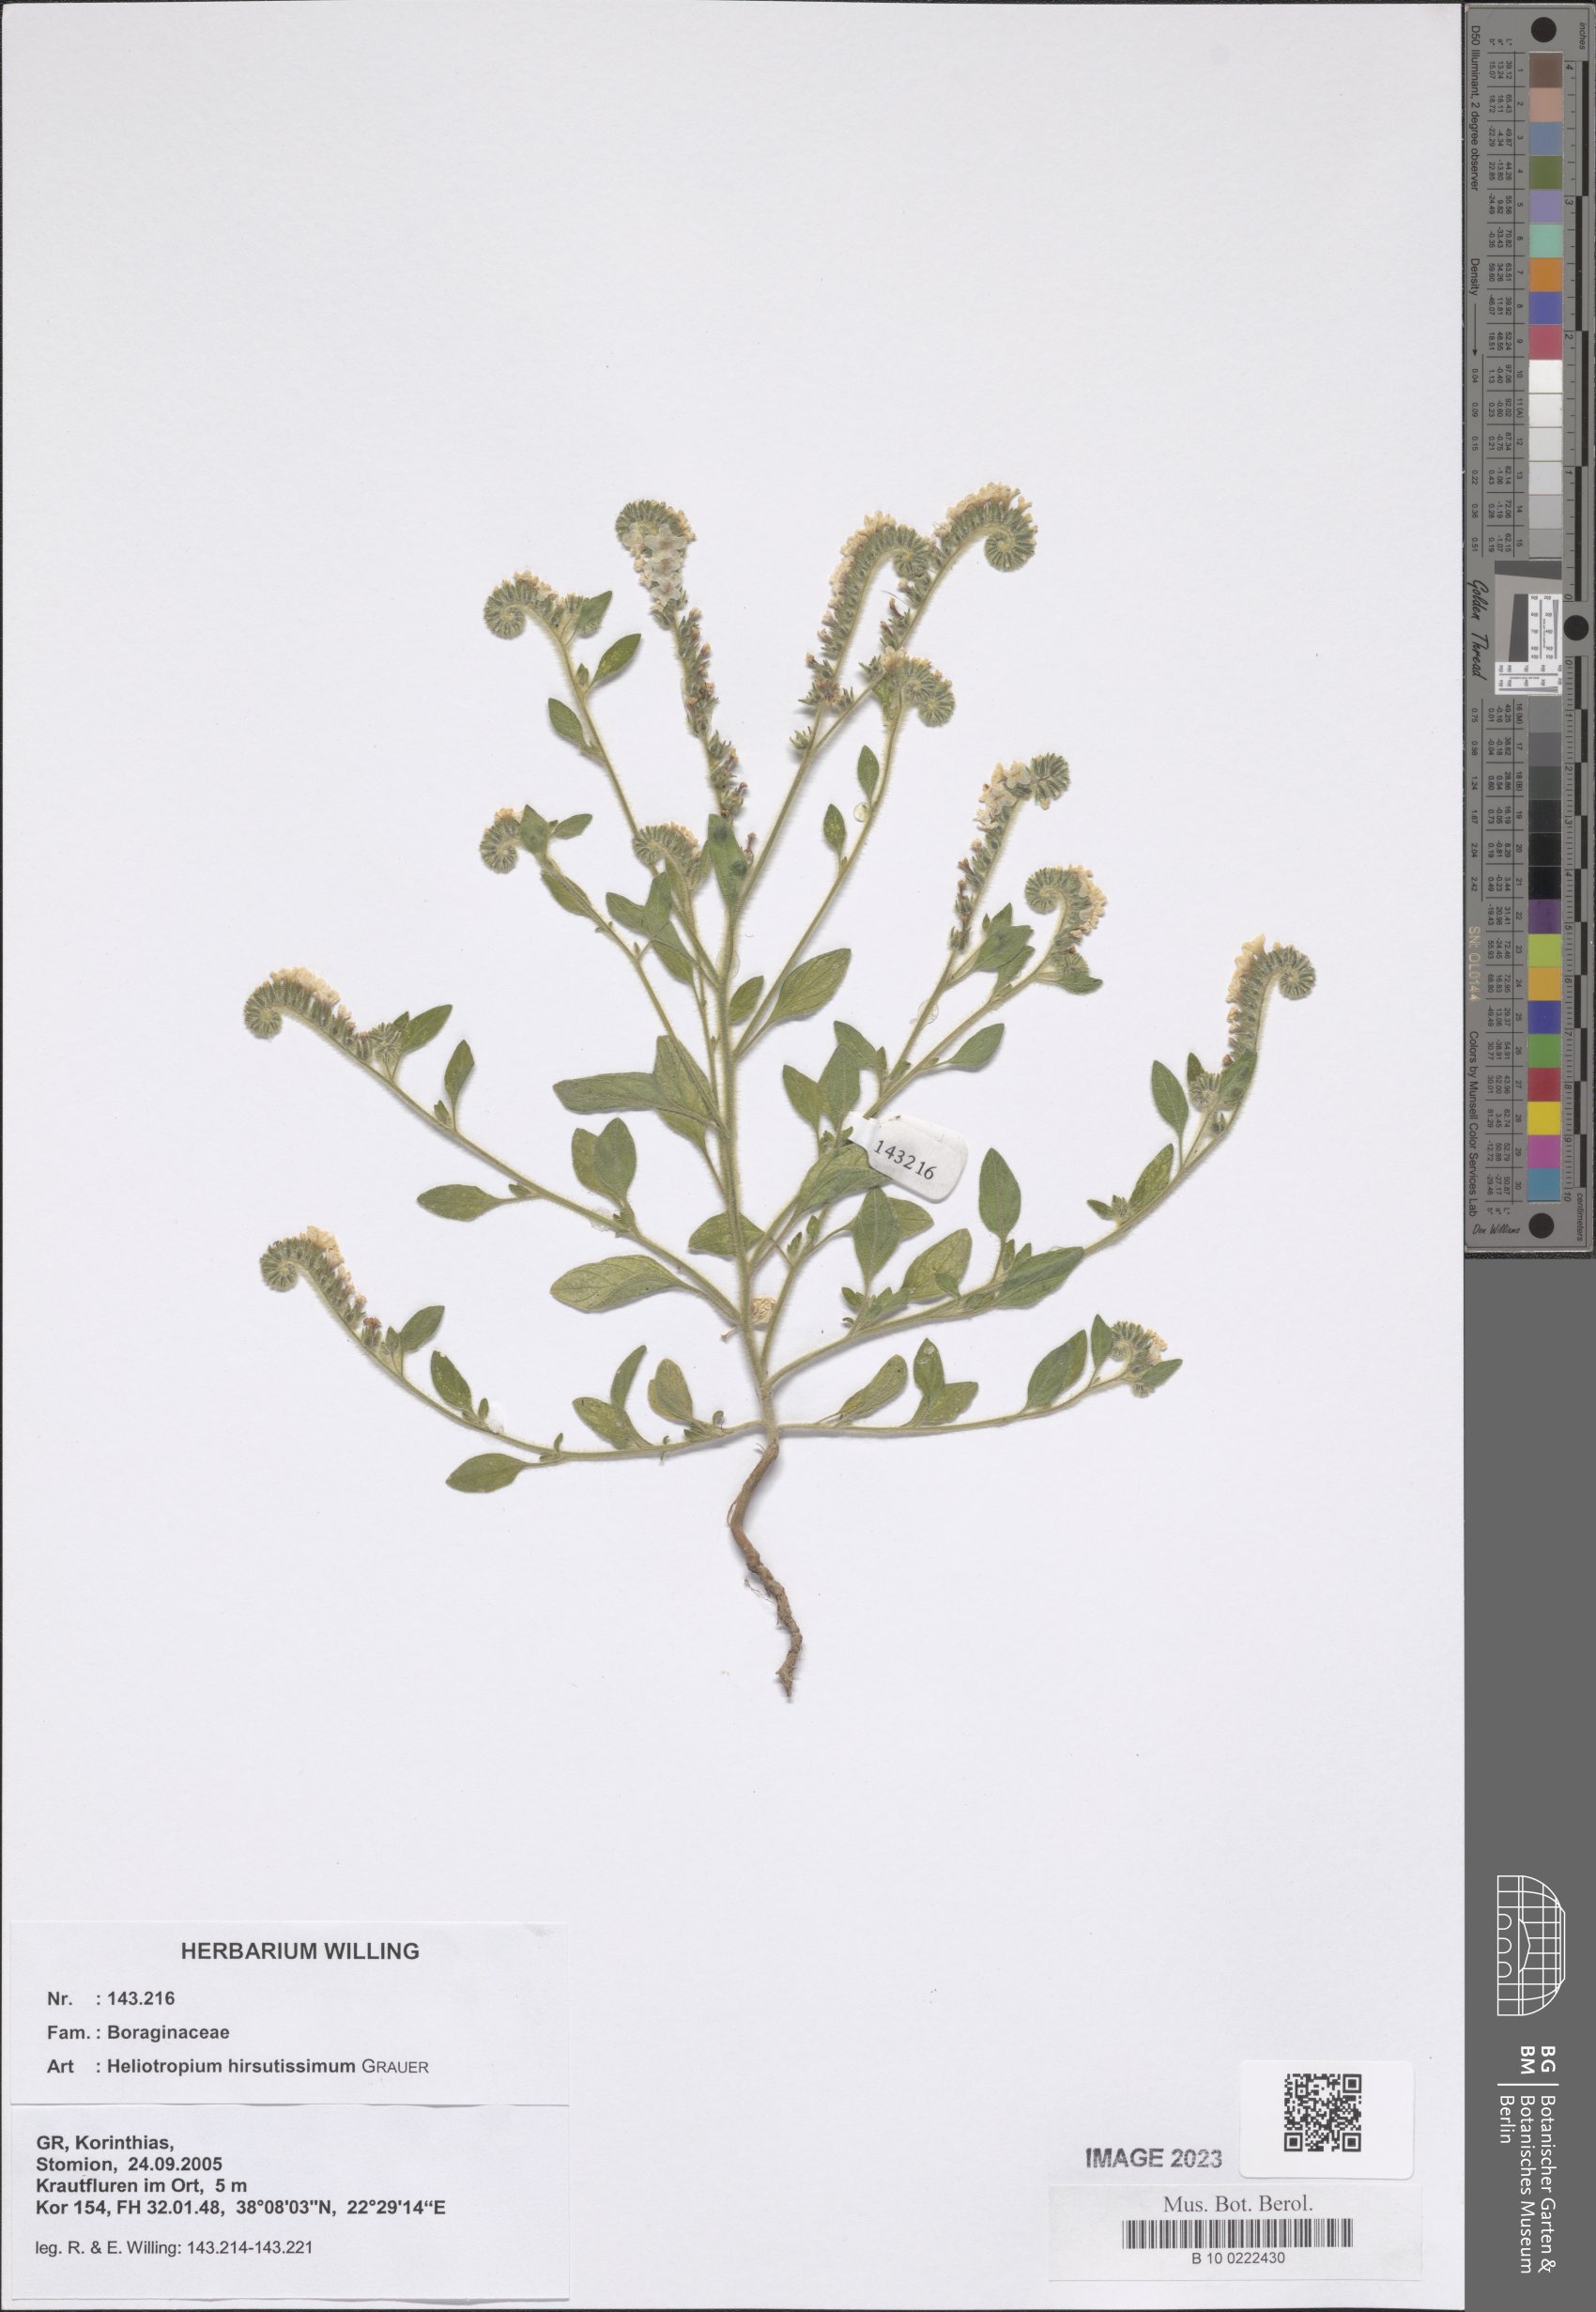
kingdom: Plantae
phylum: Tracheophyta
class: Magnoliopsida
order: Boraginales
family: Heliotropiaceae
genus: Heliotropium
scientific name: Heliotropium hirsutissimum
